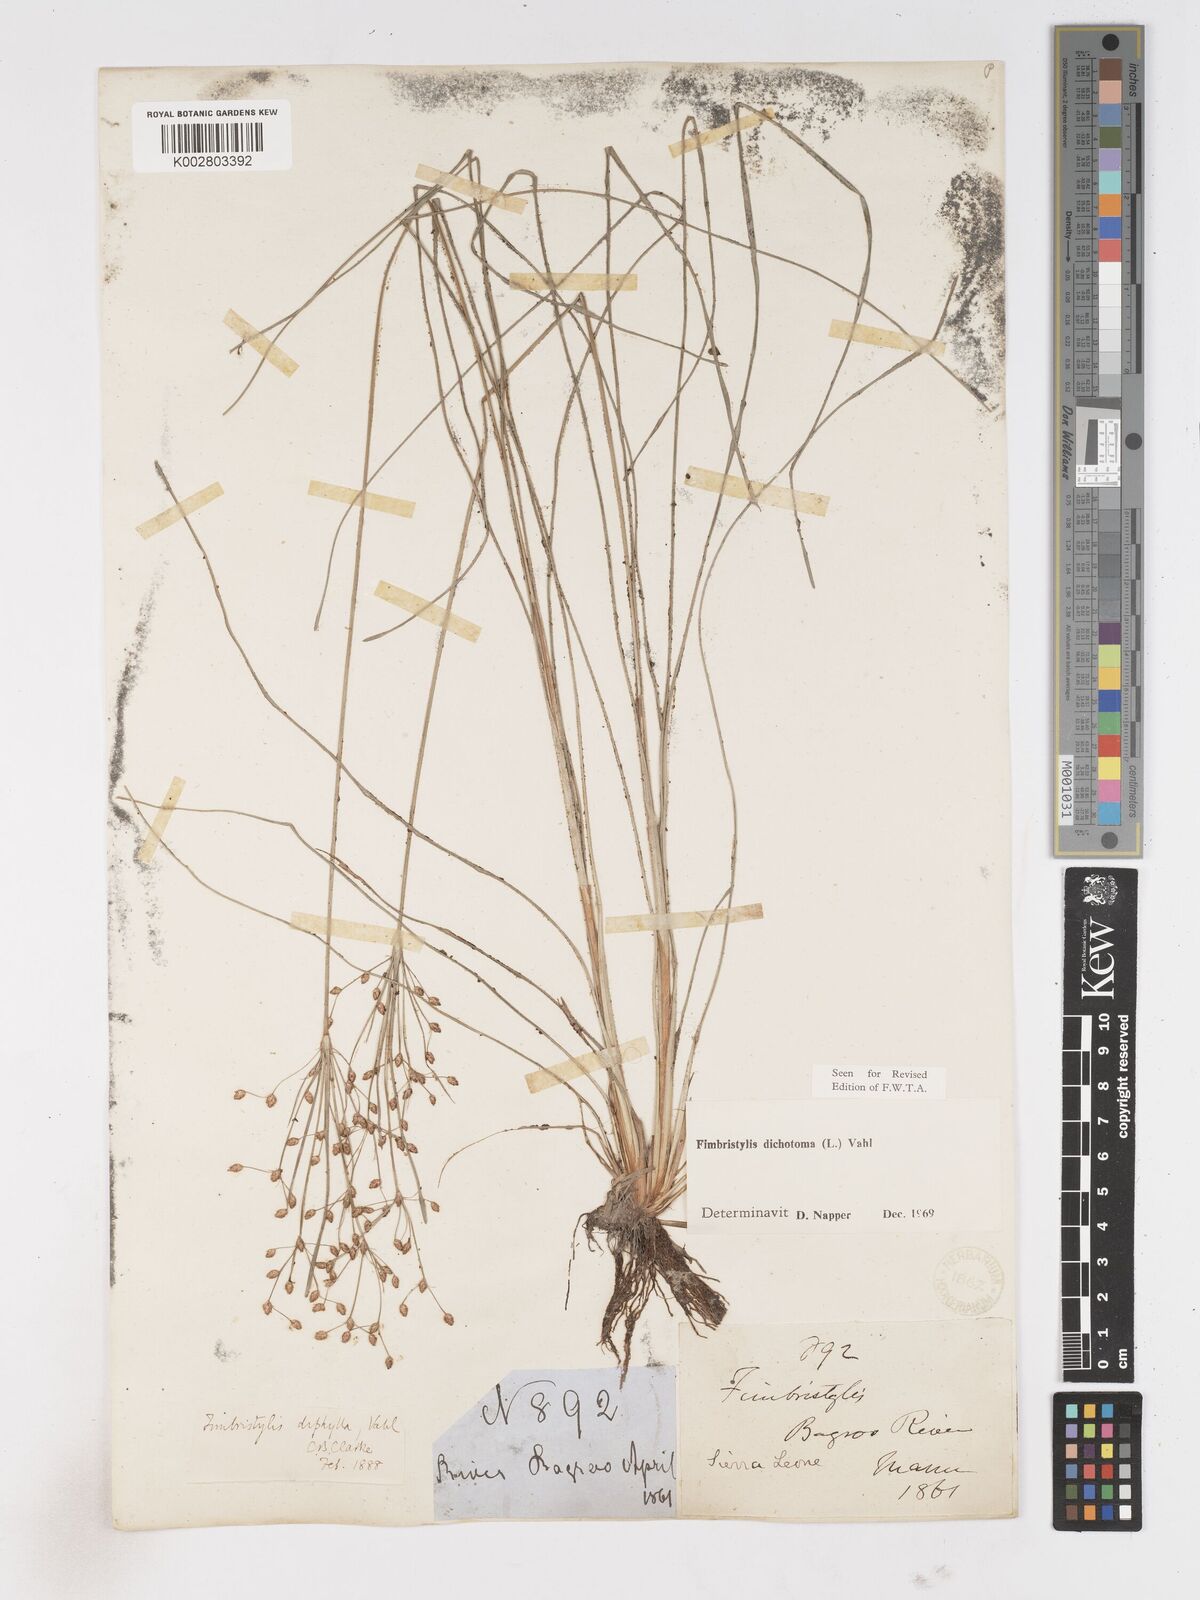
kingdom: Plantae
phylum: Tracheophyta
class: Liliopsida
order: Poales
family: Cyperaceae
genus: Fimbristylis
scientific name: Fimbristylis dichotoma
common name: Forked fimbry
